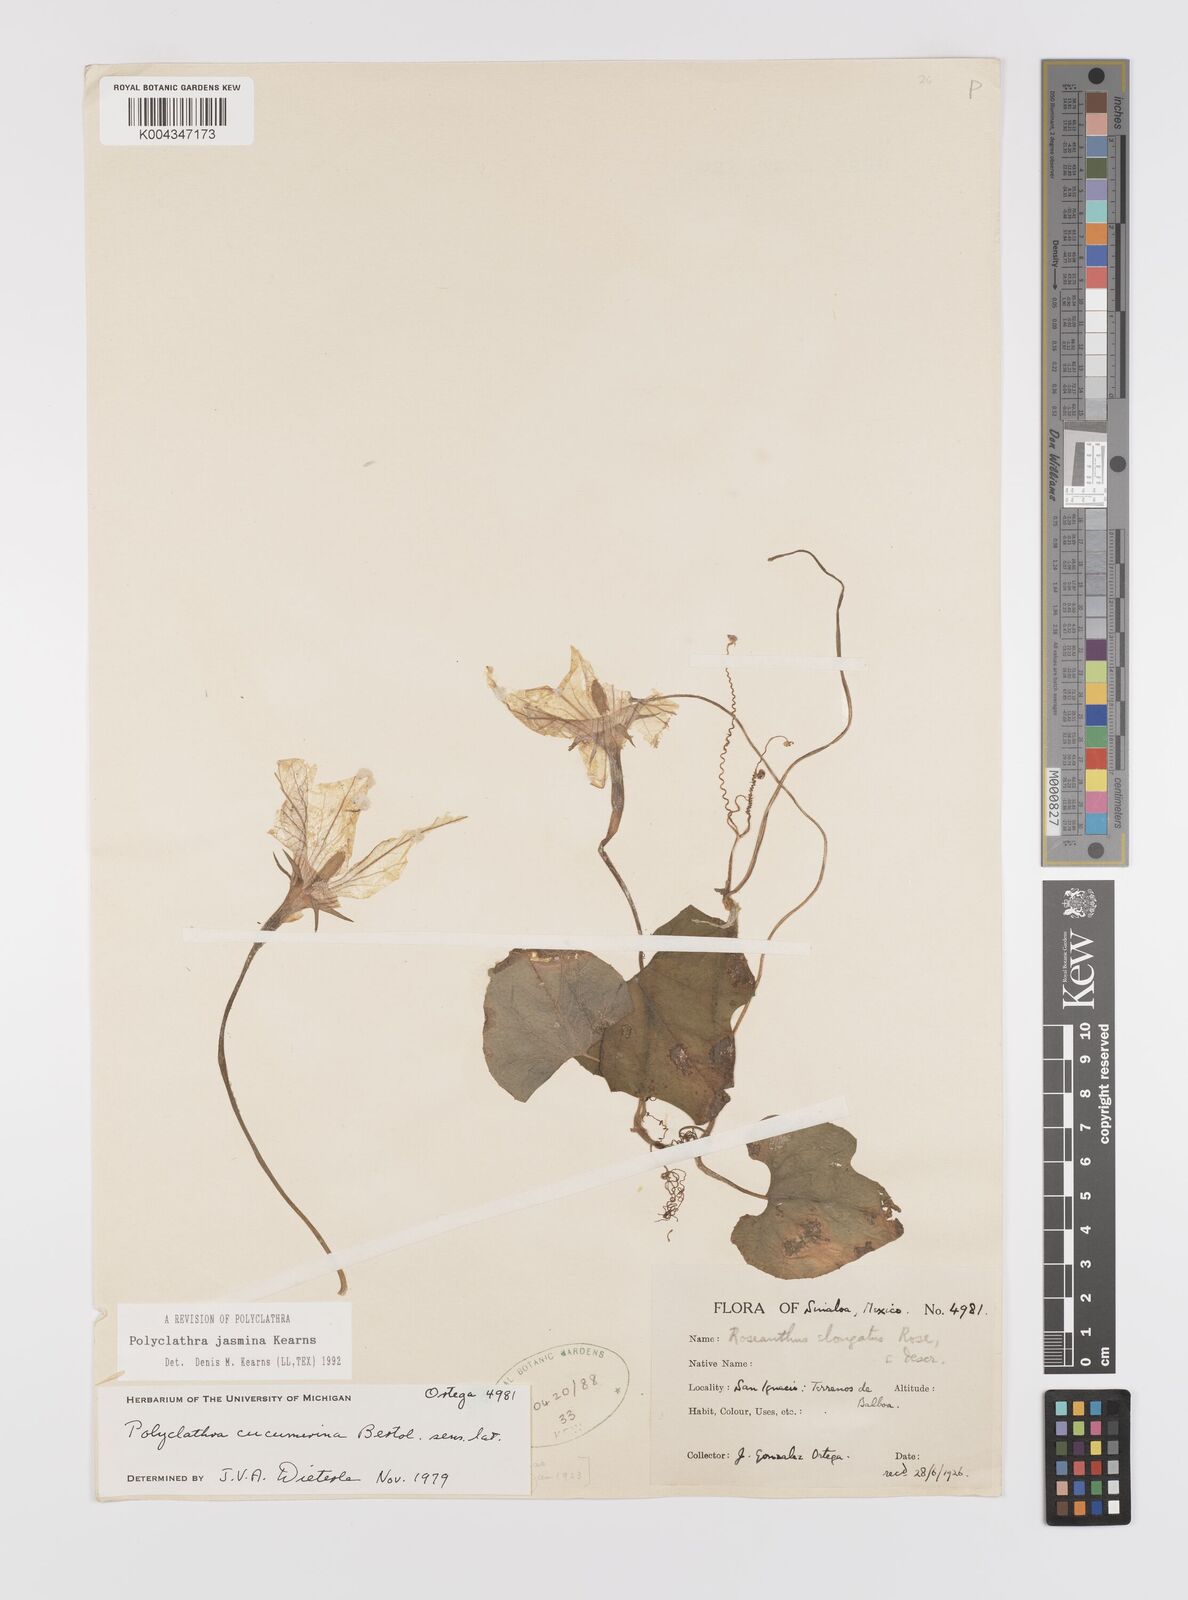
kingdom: Plantae
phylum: Tracheophyta
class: Magnoliopsida
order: Cucurbitales
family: Cucurbitaceae
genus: Polyclathra
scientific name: Polyclathra
